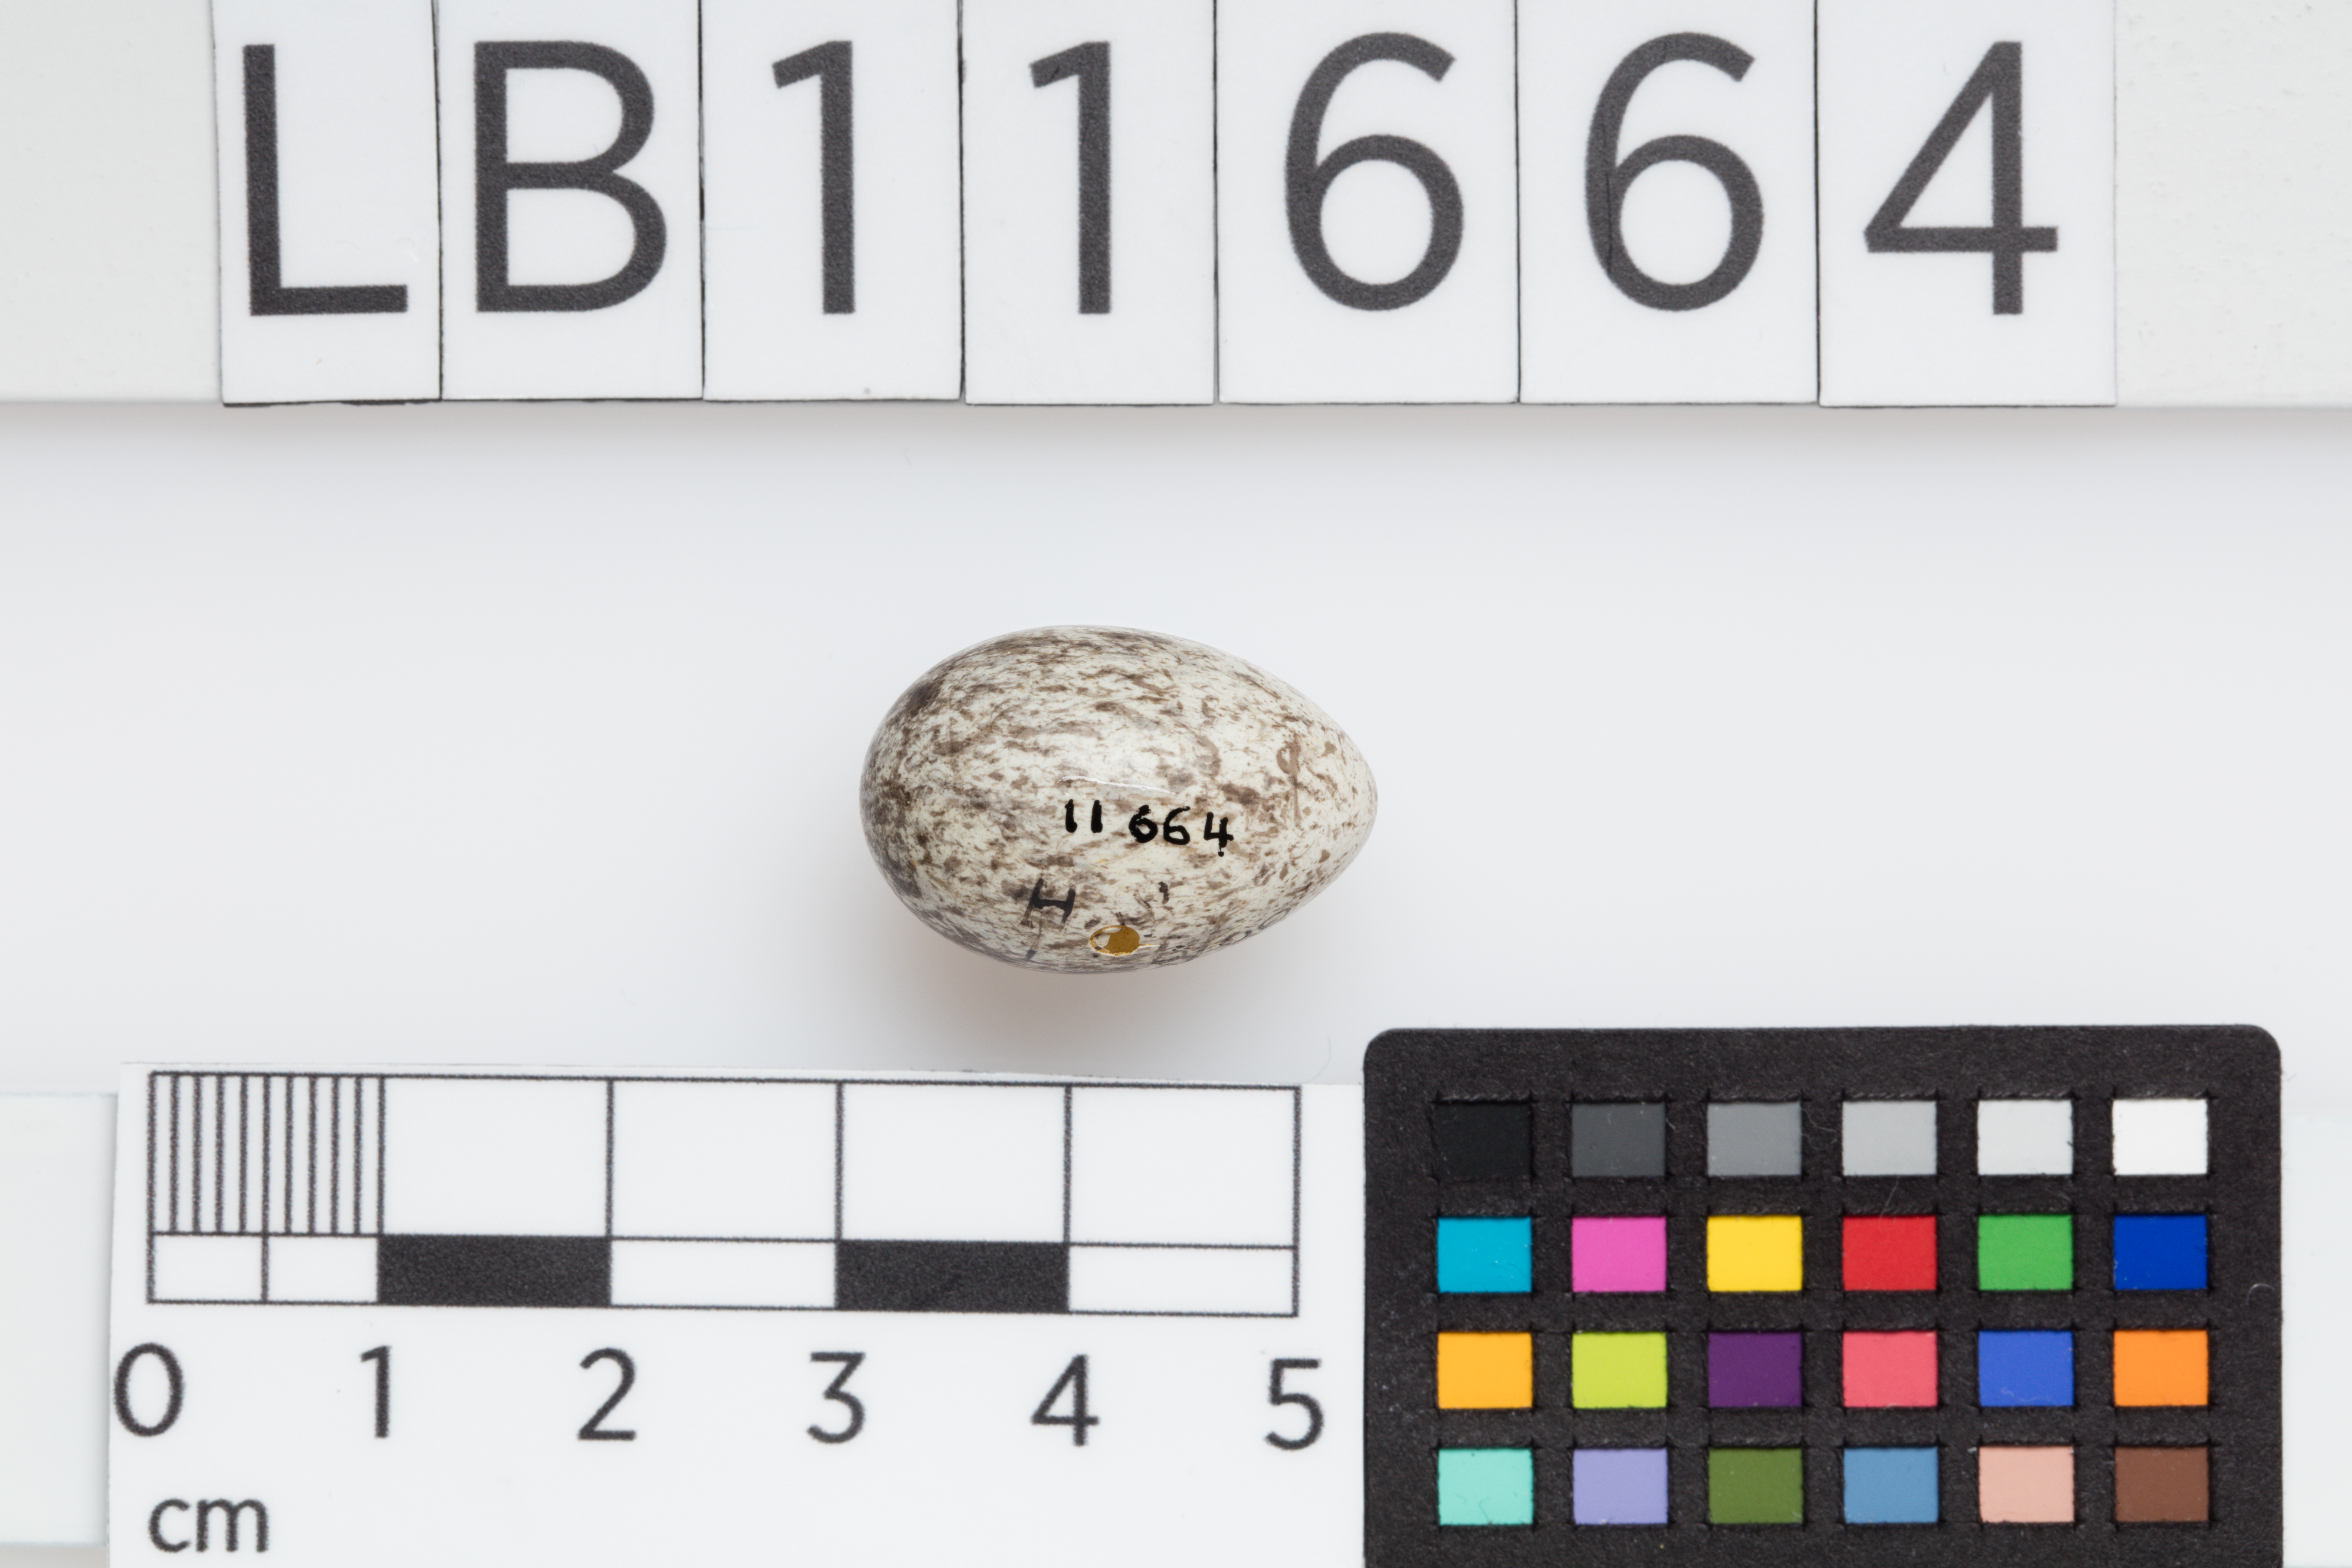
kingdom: Animalia
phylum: Chordata
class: Aves
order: Passeriformes
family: Passeridae
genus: Passer
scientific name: Passer domesticus
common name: House sparrow
